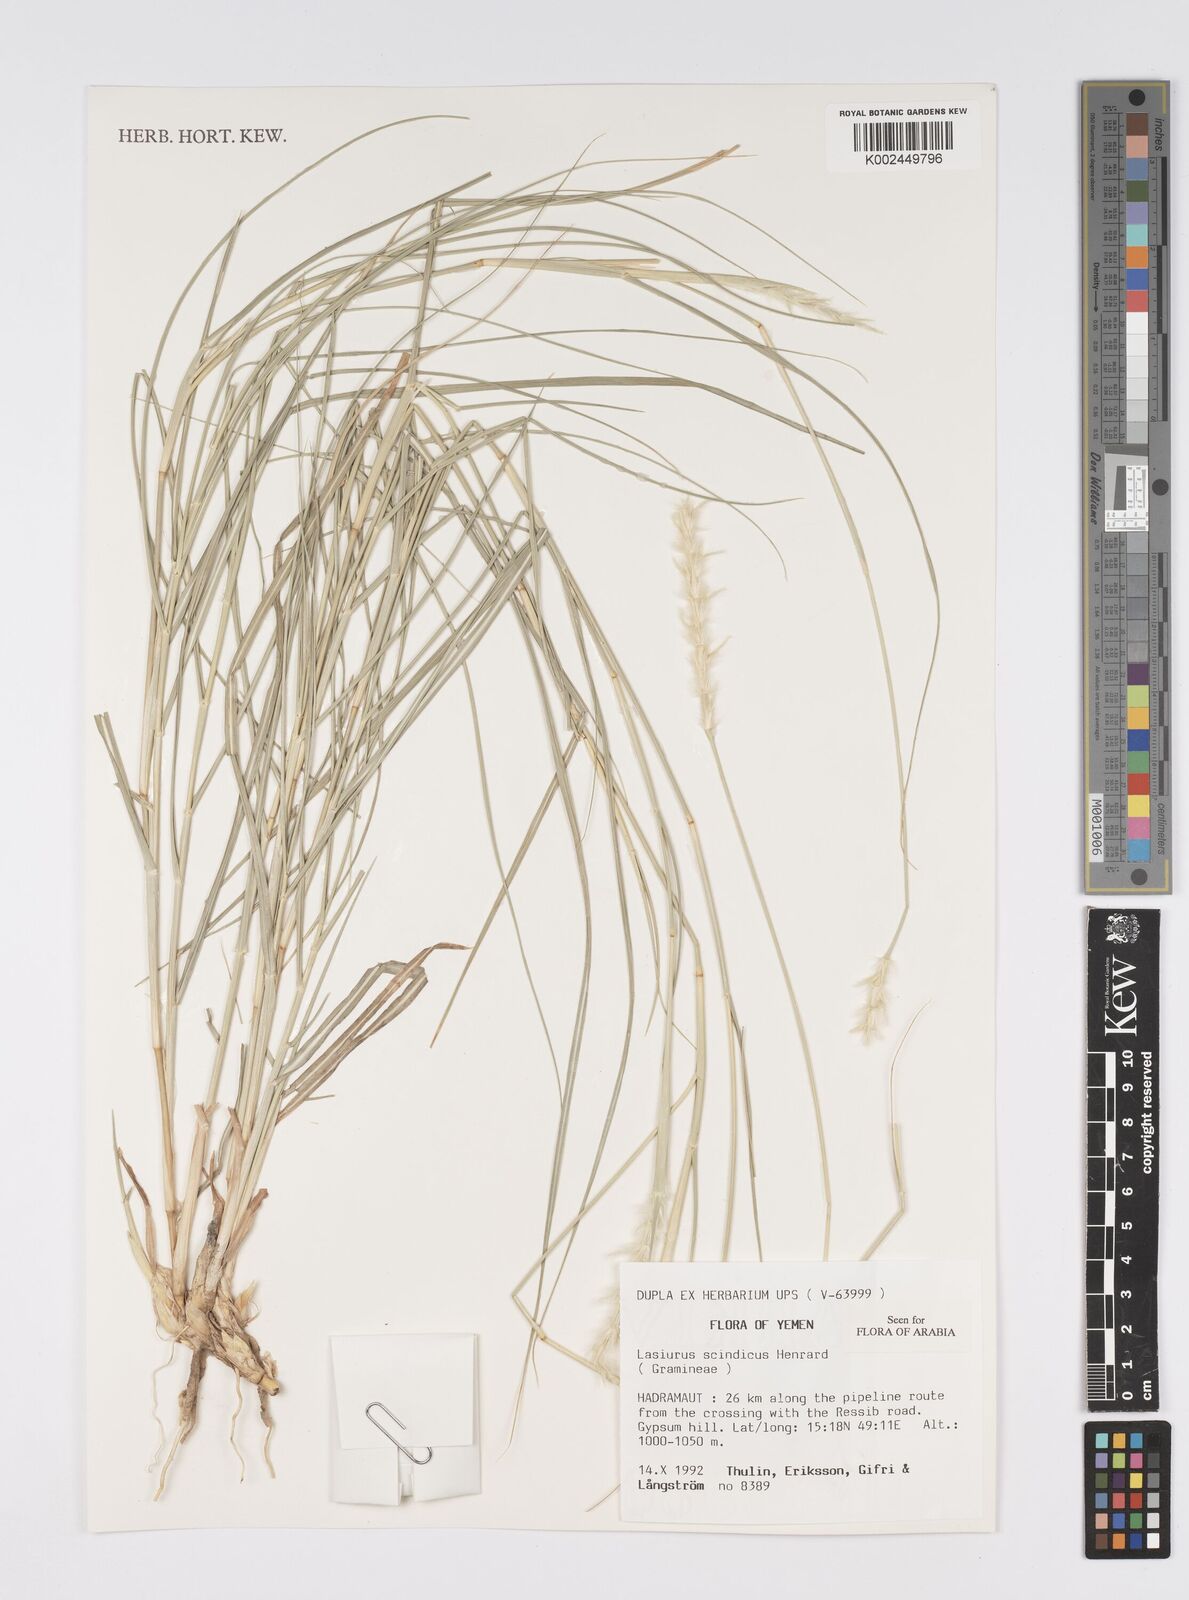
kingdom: Plantae
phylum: Tracheophyta
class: Liliopsida
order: Poales
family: Poaceae
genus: Lasiurus
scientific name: Lasiurus scindicus
